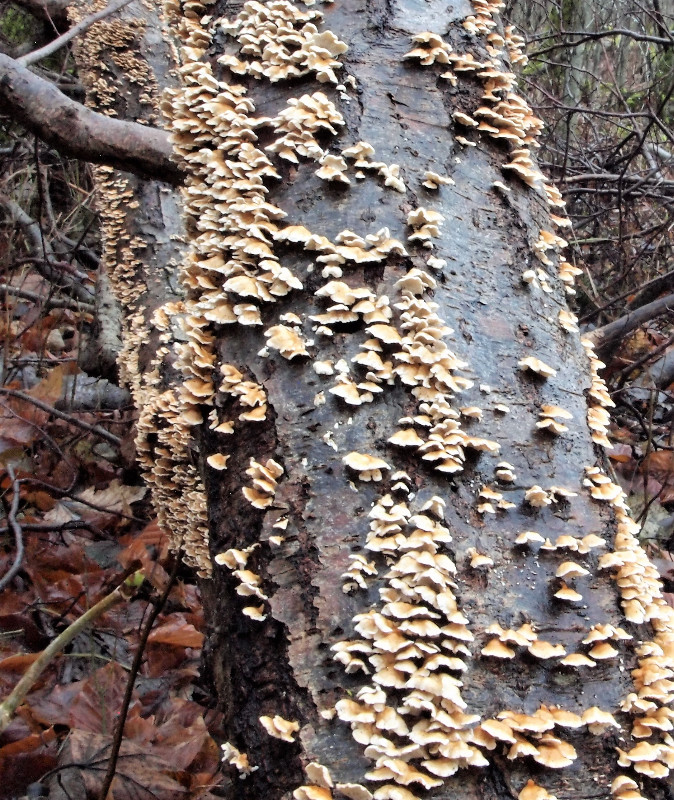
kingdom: Fungi
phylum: Basidiomycota
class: Agaricomycetes
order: Amylocorticiales
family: Amylocorticiaceae
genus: Plicaturopsis
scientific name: Plicaturopsis crispa
